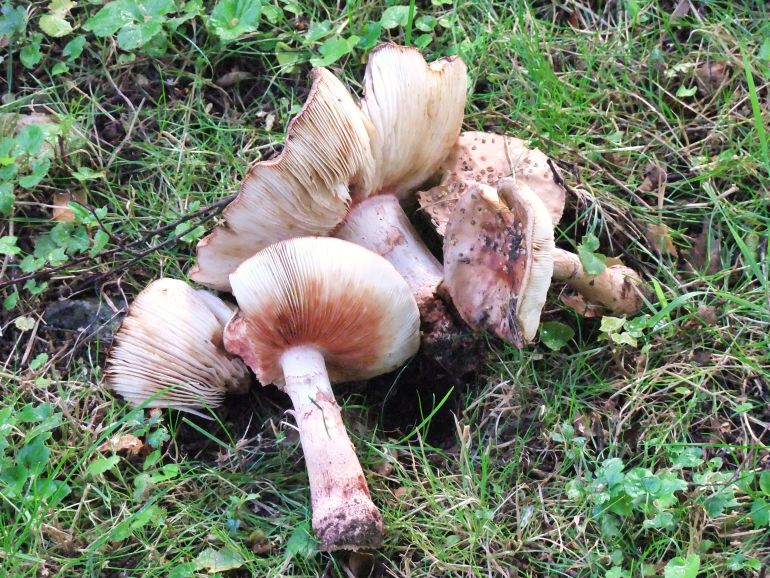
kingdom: Fungi
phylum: Basidiomycota
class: Agaricomycetes
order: Agaricales
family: Amanitaceae
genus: Amanita
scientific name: Amanita rubescens
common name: rødmende fluesvamp
